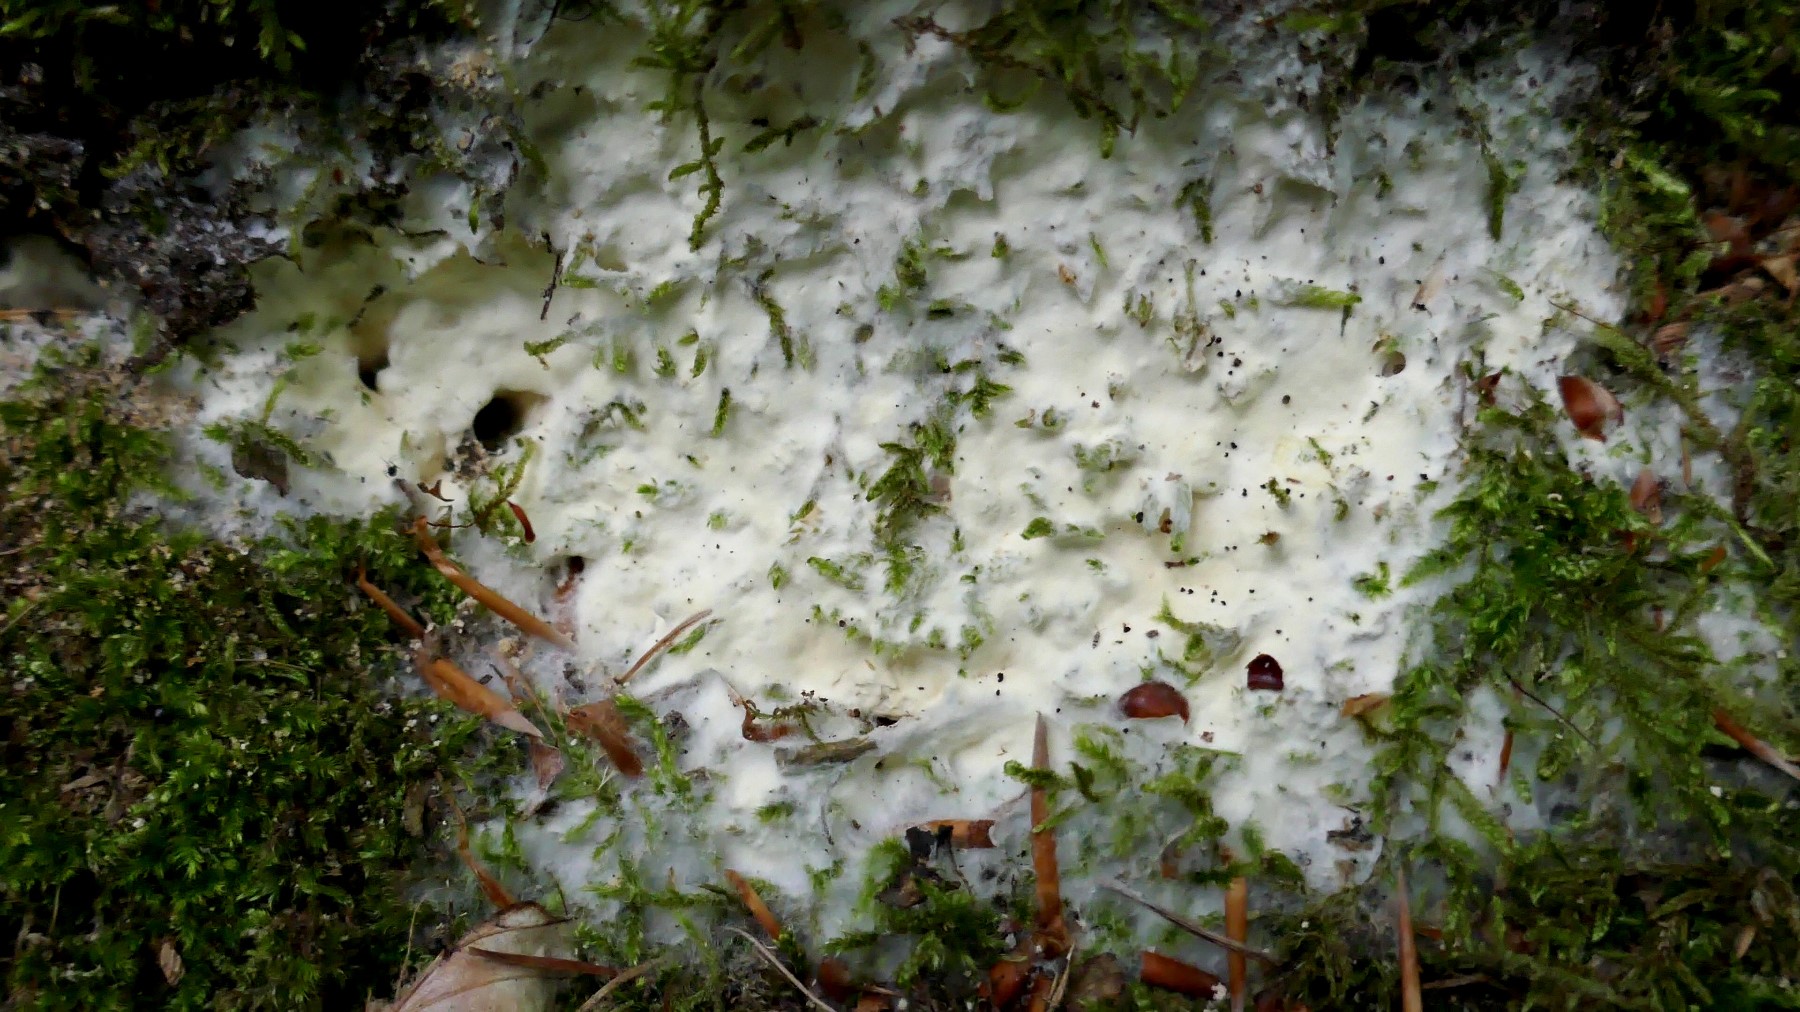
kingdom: Fungi
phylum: Ascomycota
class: Sordariomycetes
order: Hypocreales
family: Hypocreaceae
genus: Trichoderma
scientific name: Trichoderma citrinum
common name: udbredt kødkerne
